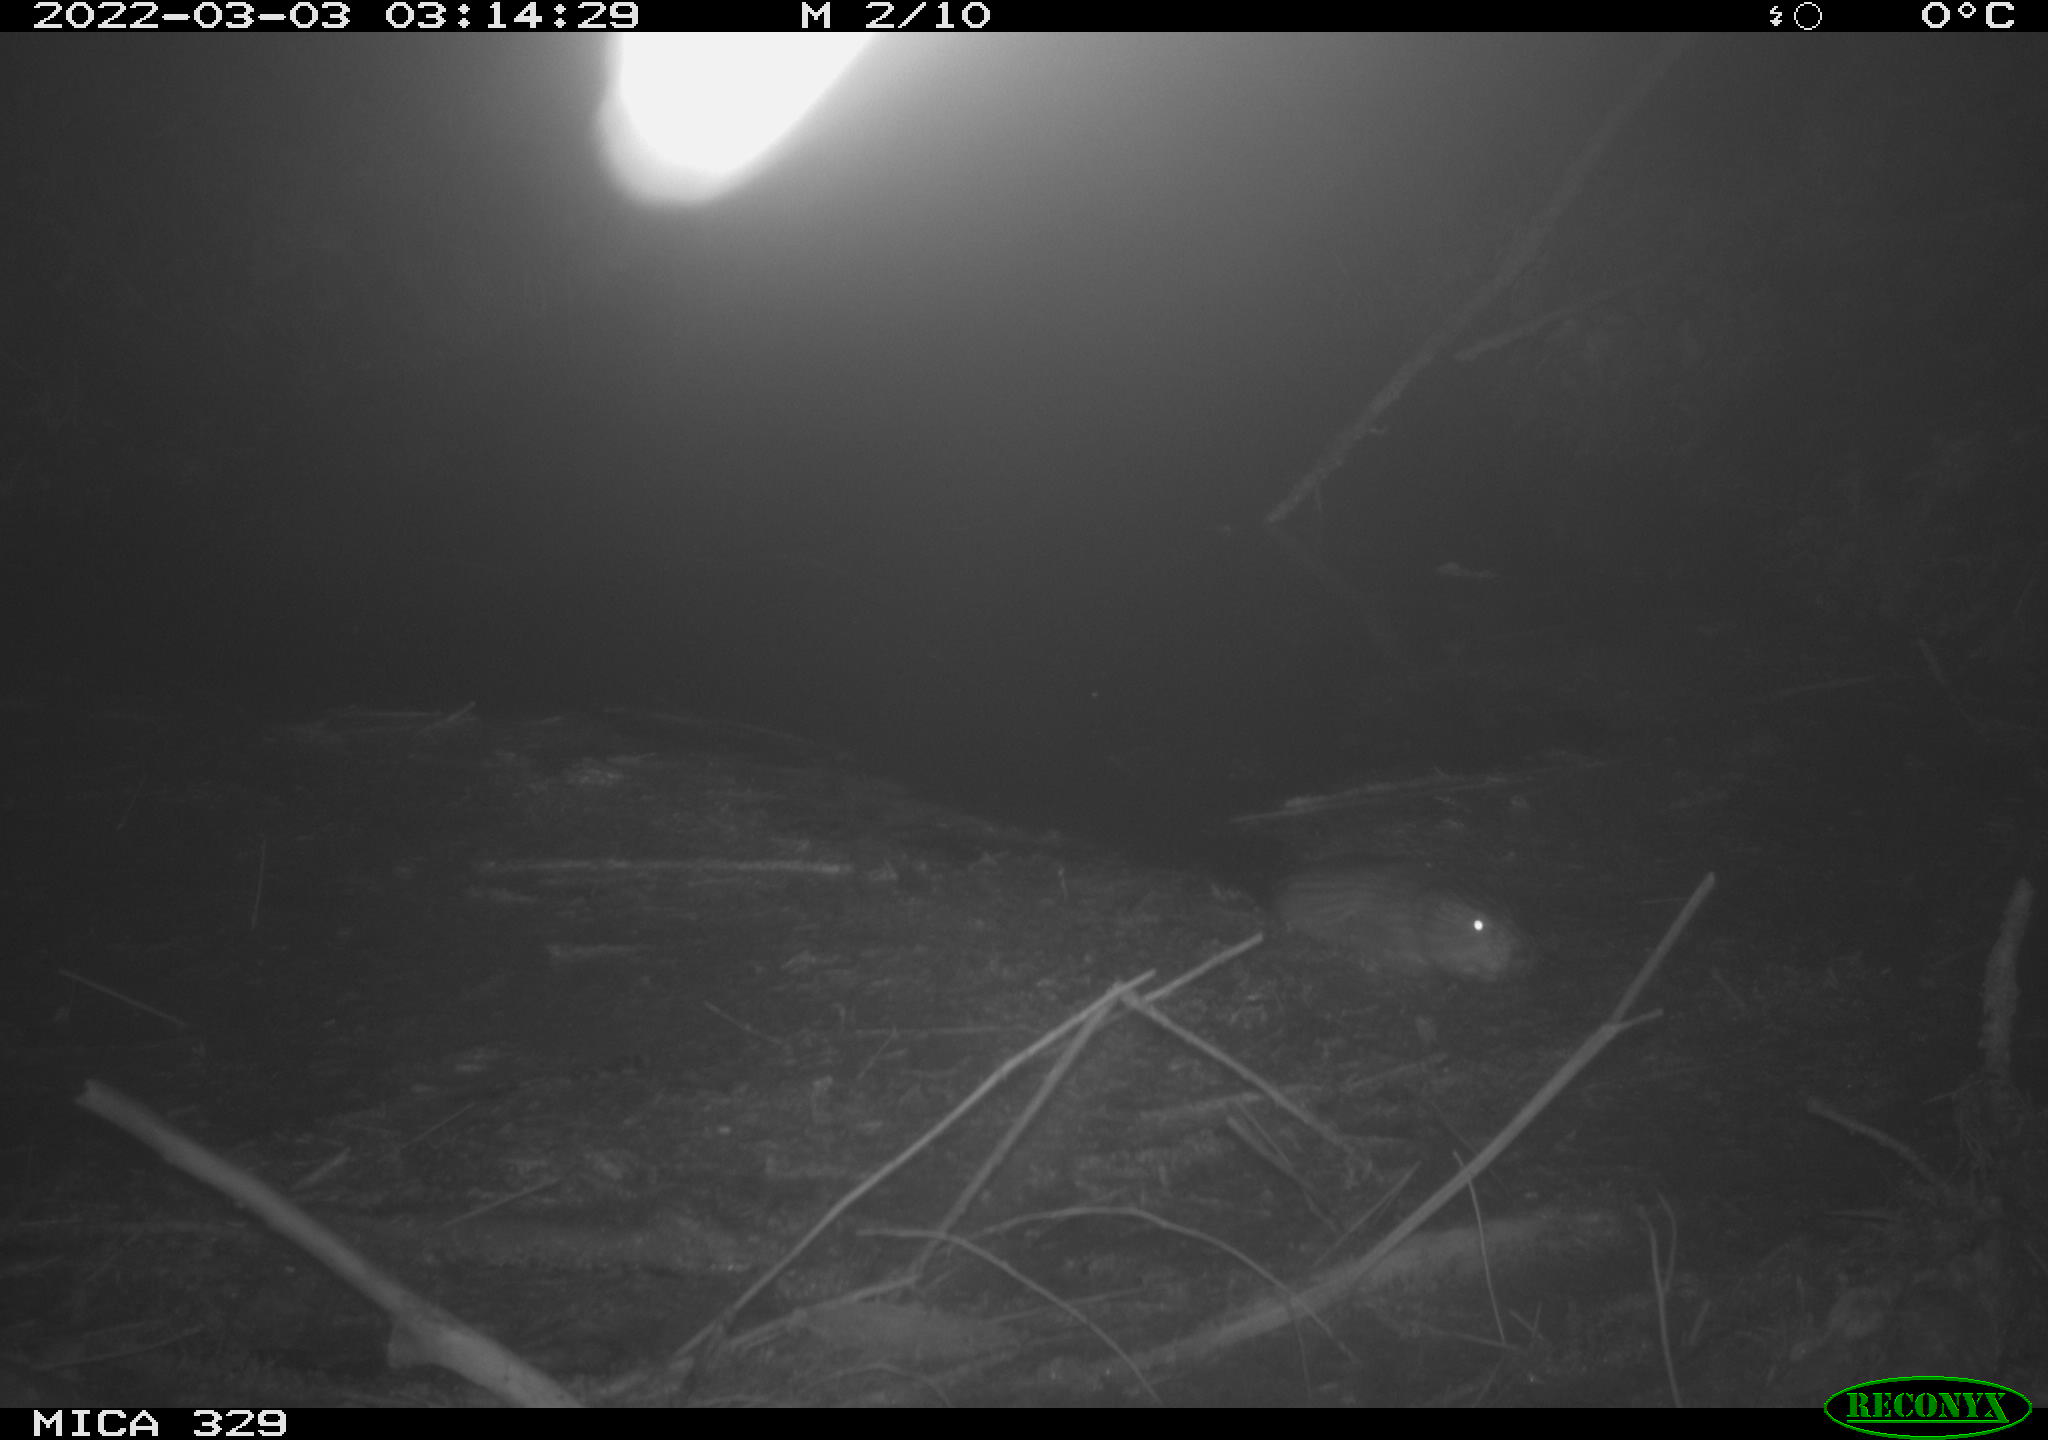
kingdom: Animalia
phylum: Chordata
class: Mammalia
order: Rodentia
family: Cricetidae
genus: Ondatra
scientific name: Ondatra zibethicus
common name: Muskrat
